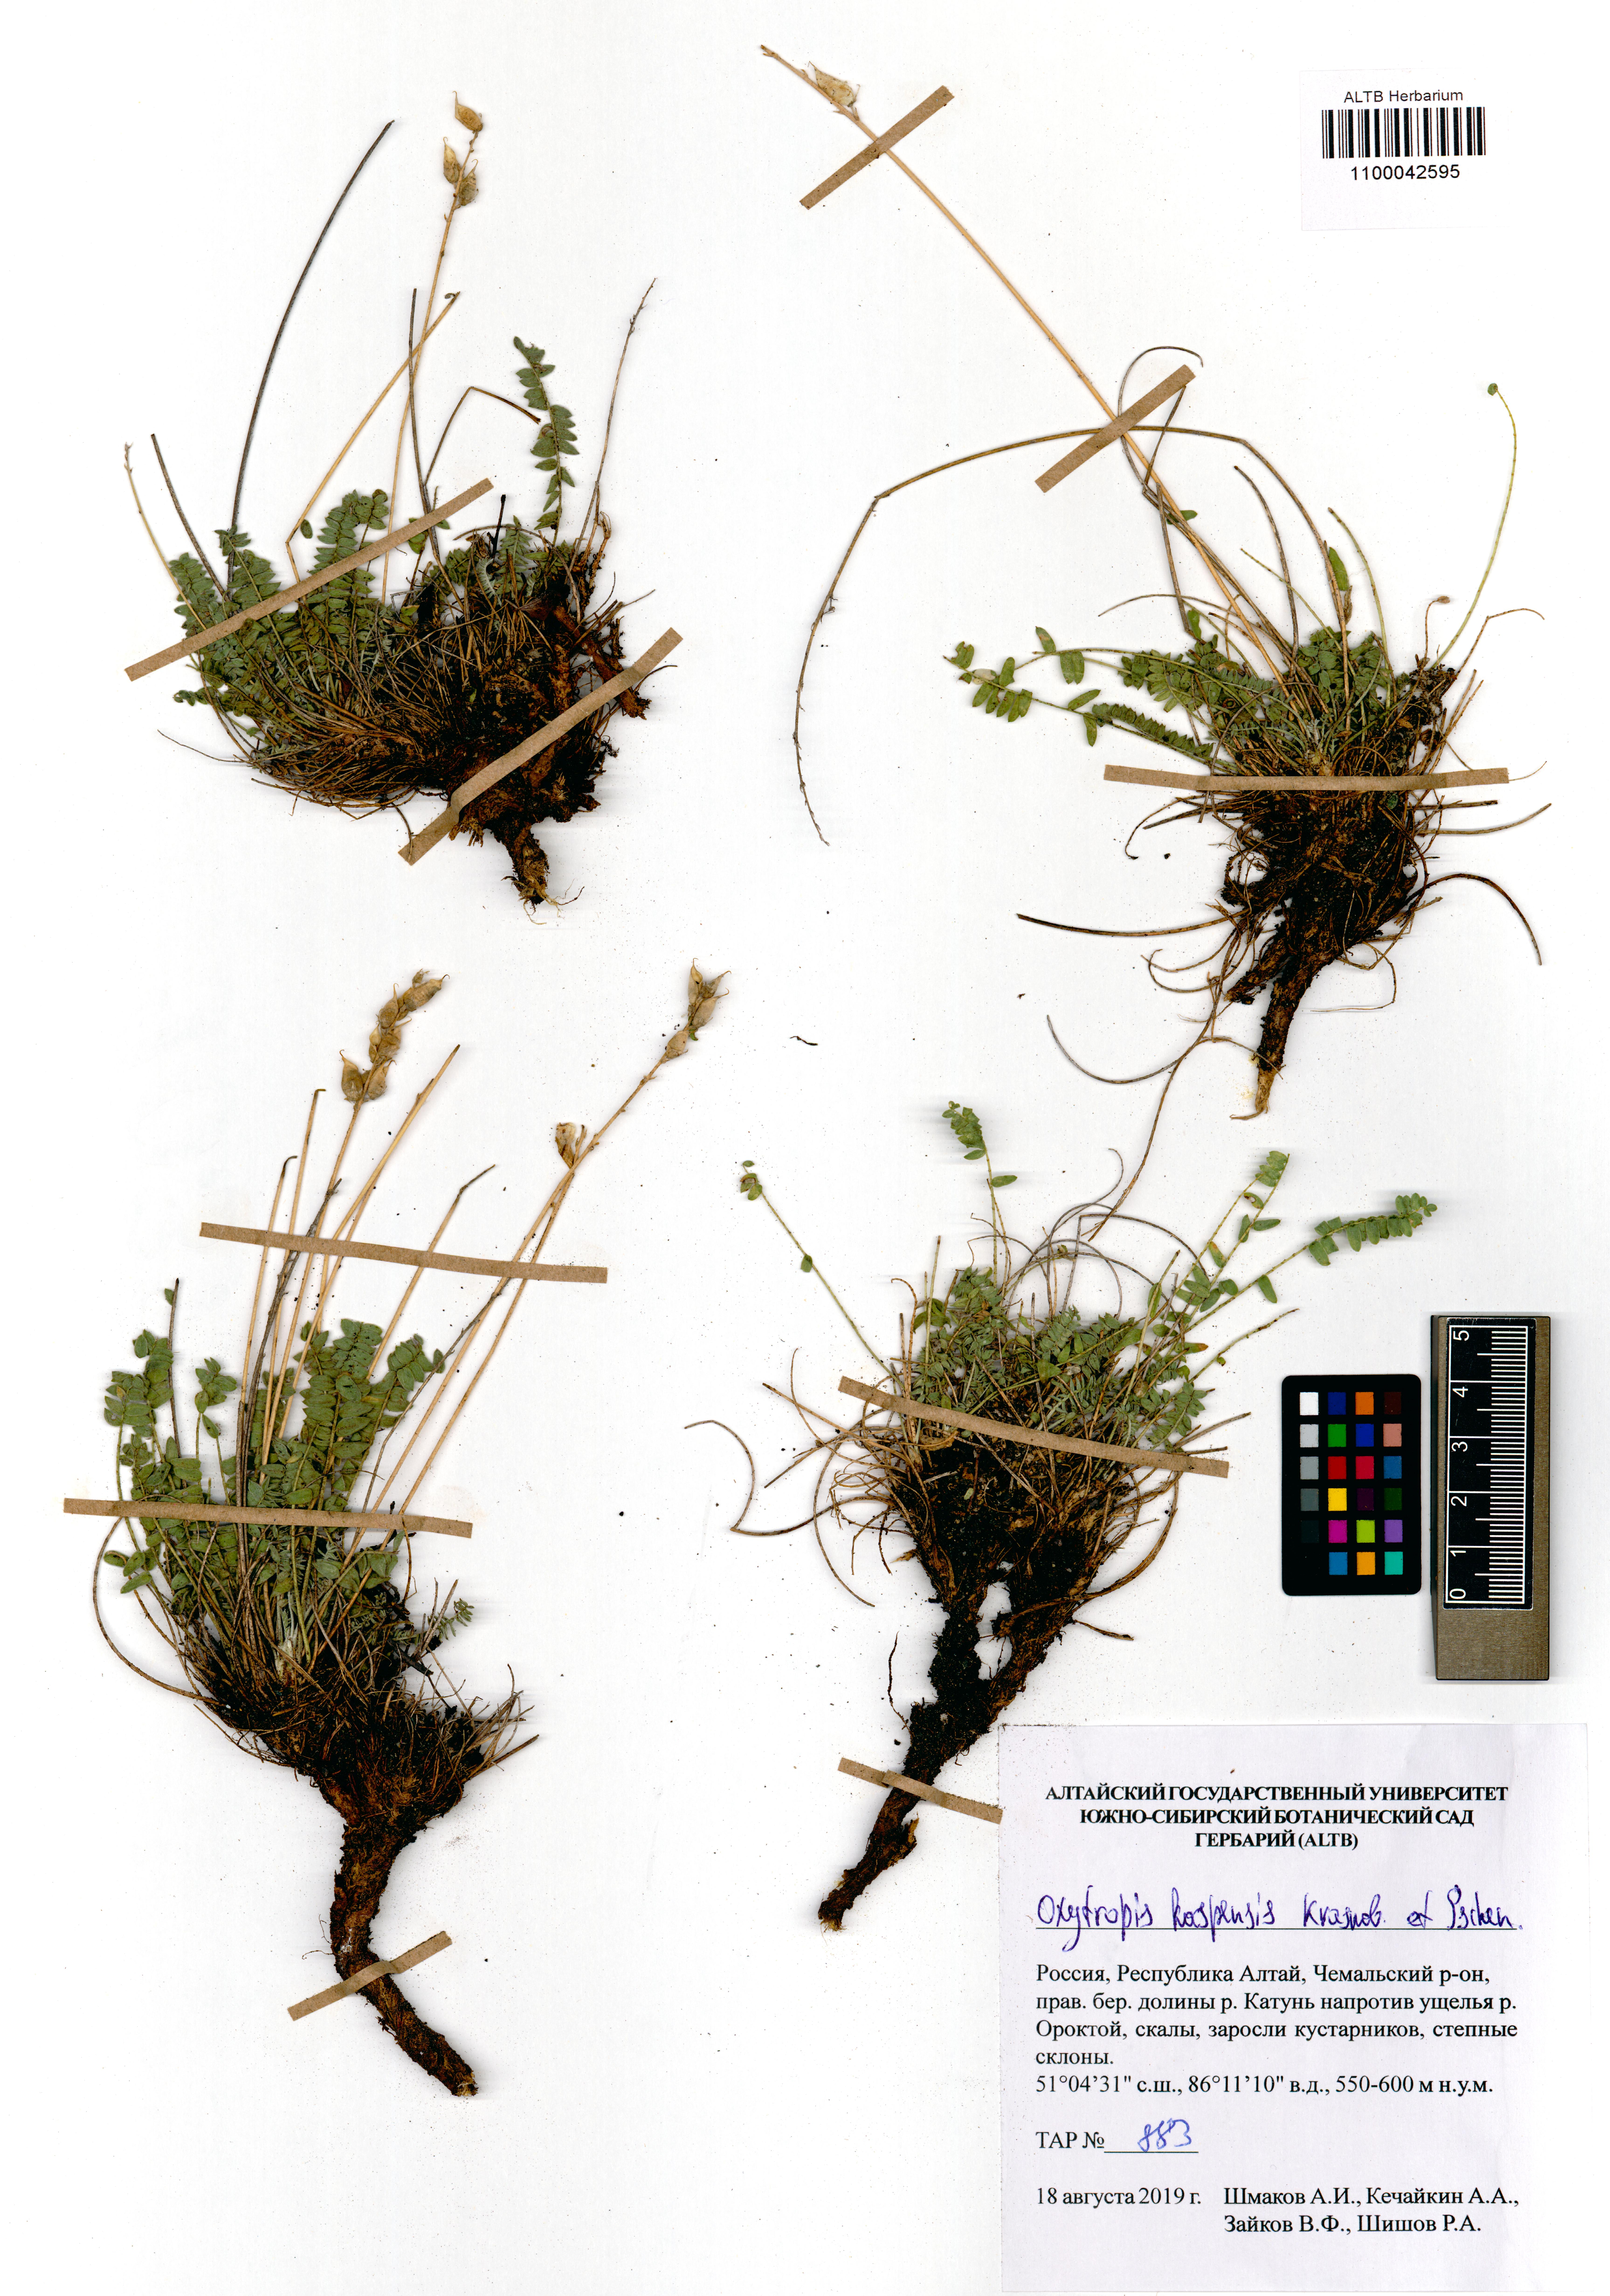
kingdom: Plantae
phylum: Tracheophyta
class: Magnoliopsida
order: Fabales
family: Fabaceae
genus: Oxytropis
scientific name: Oxytropis kaspensis
